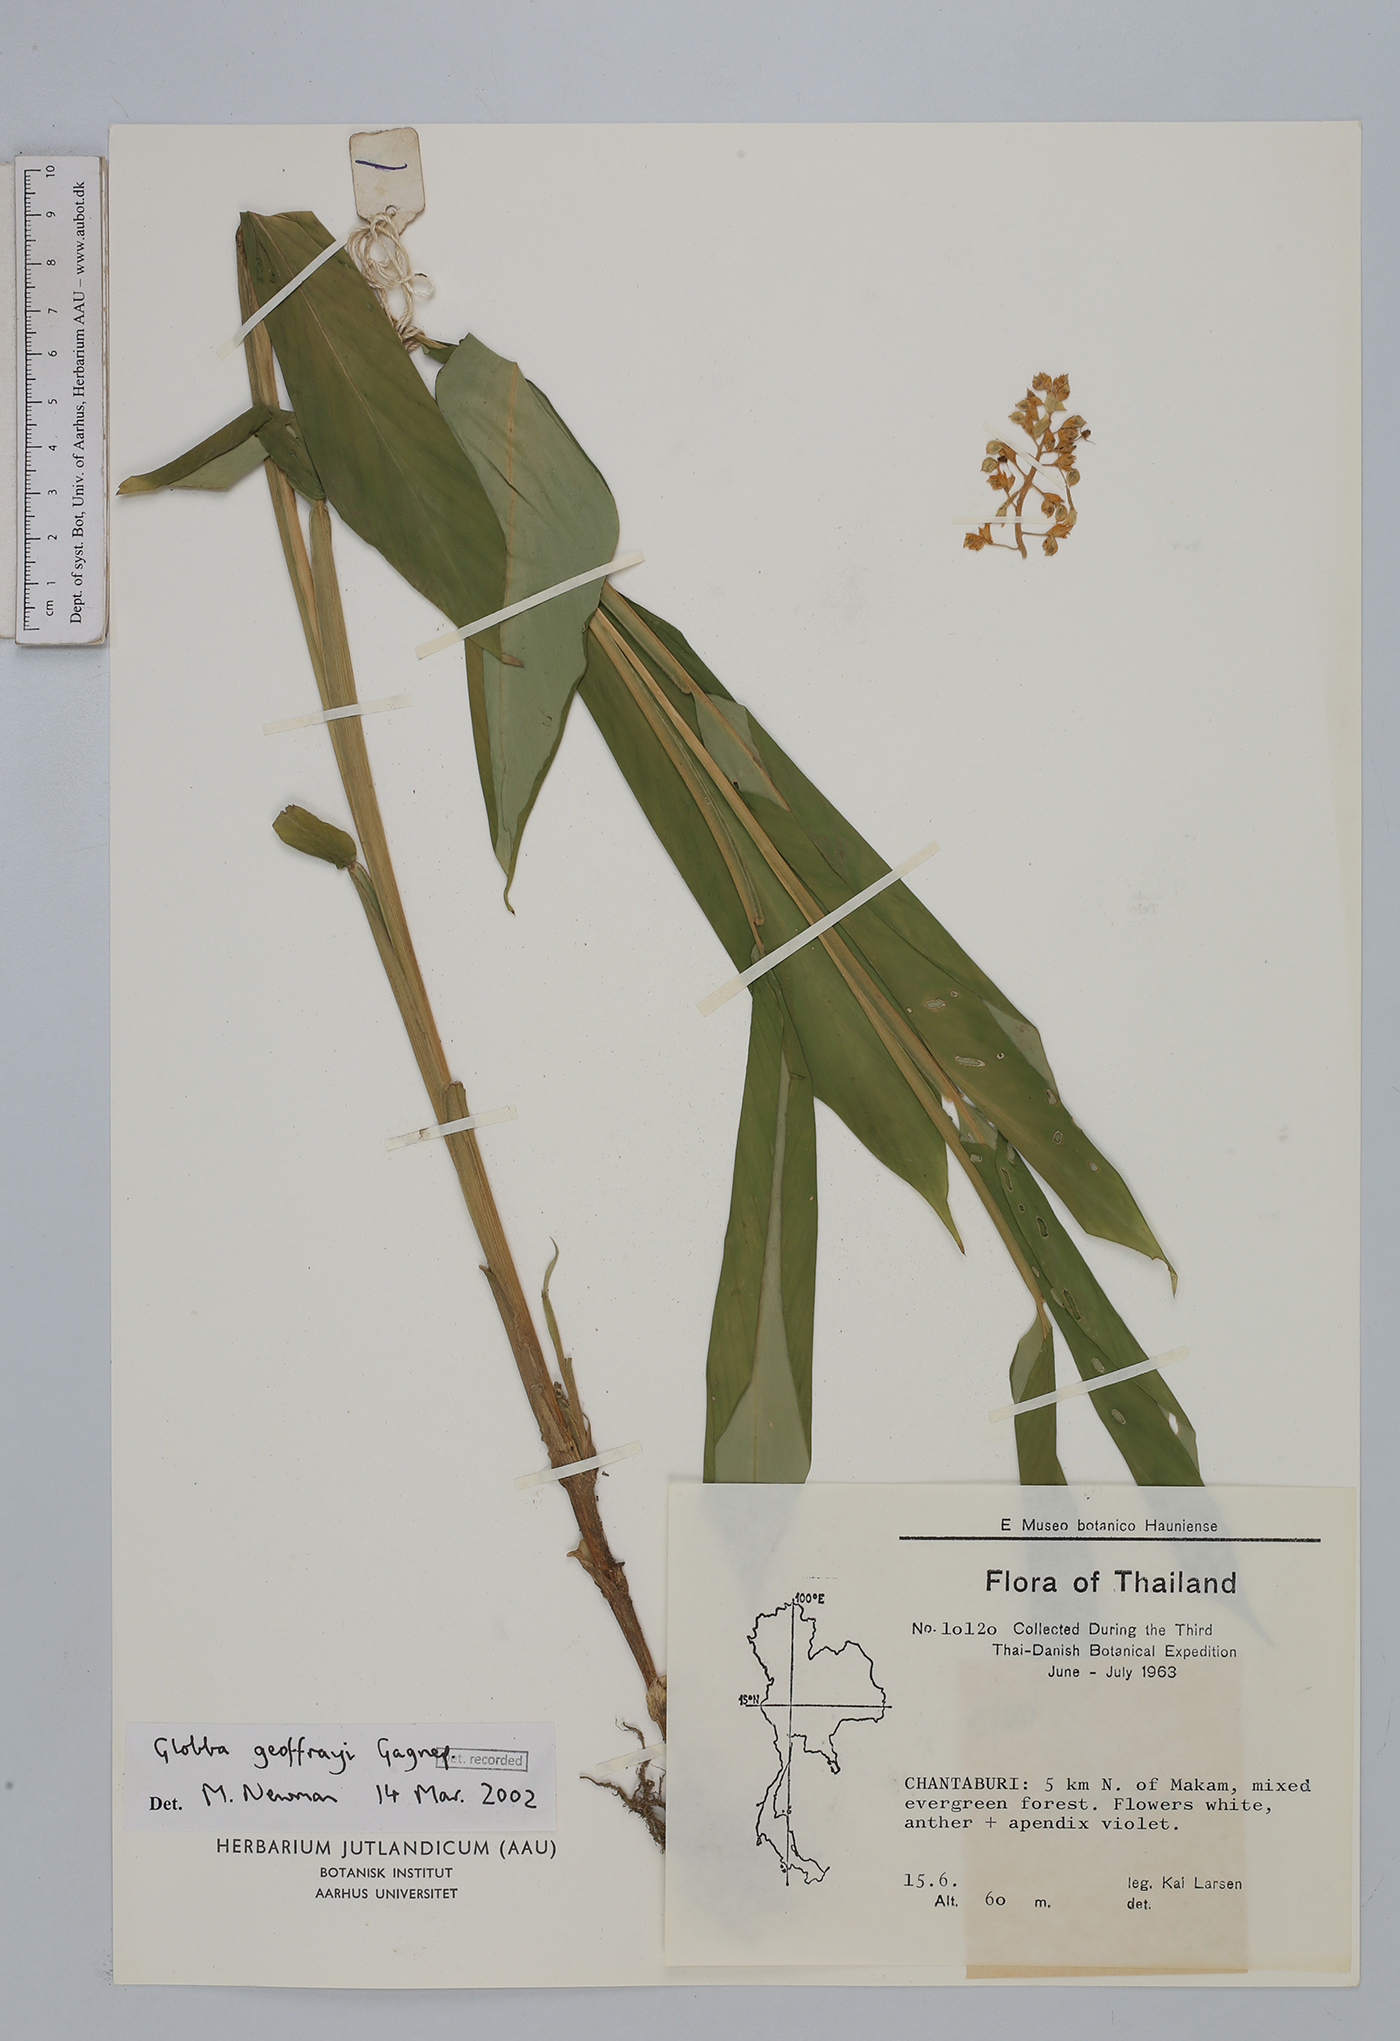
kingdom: Plantae
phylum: Tracheophyta
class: Liliopsida
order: Zingiberales
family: Zingiberaceae
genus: Globba
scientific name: Globba geoffrayi
